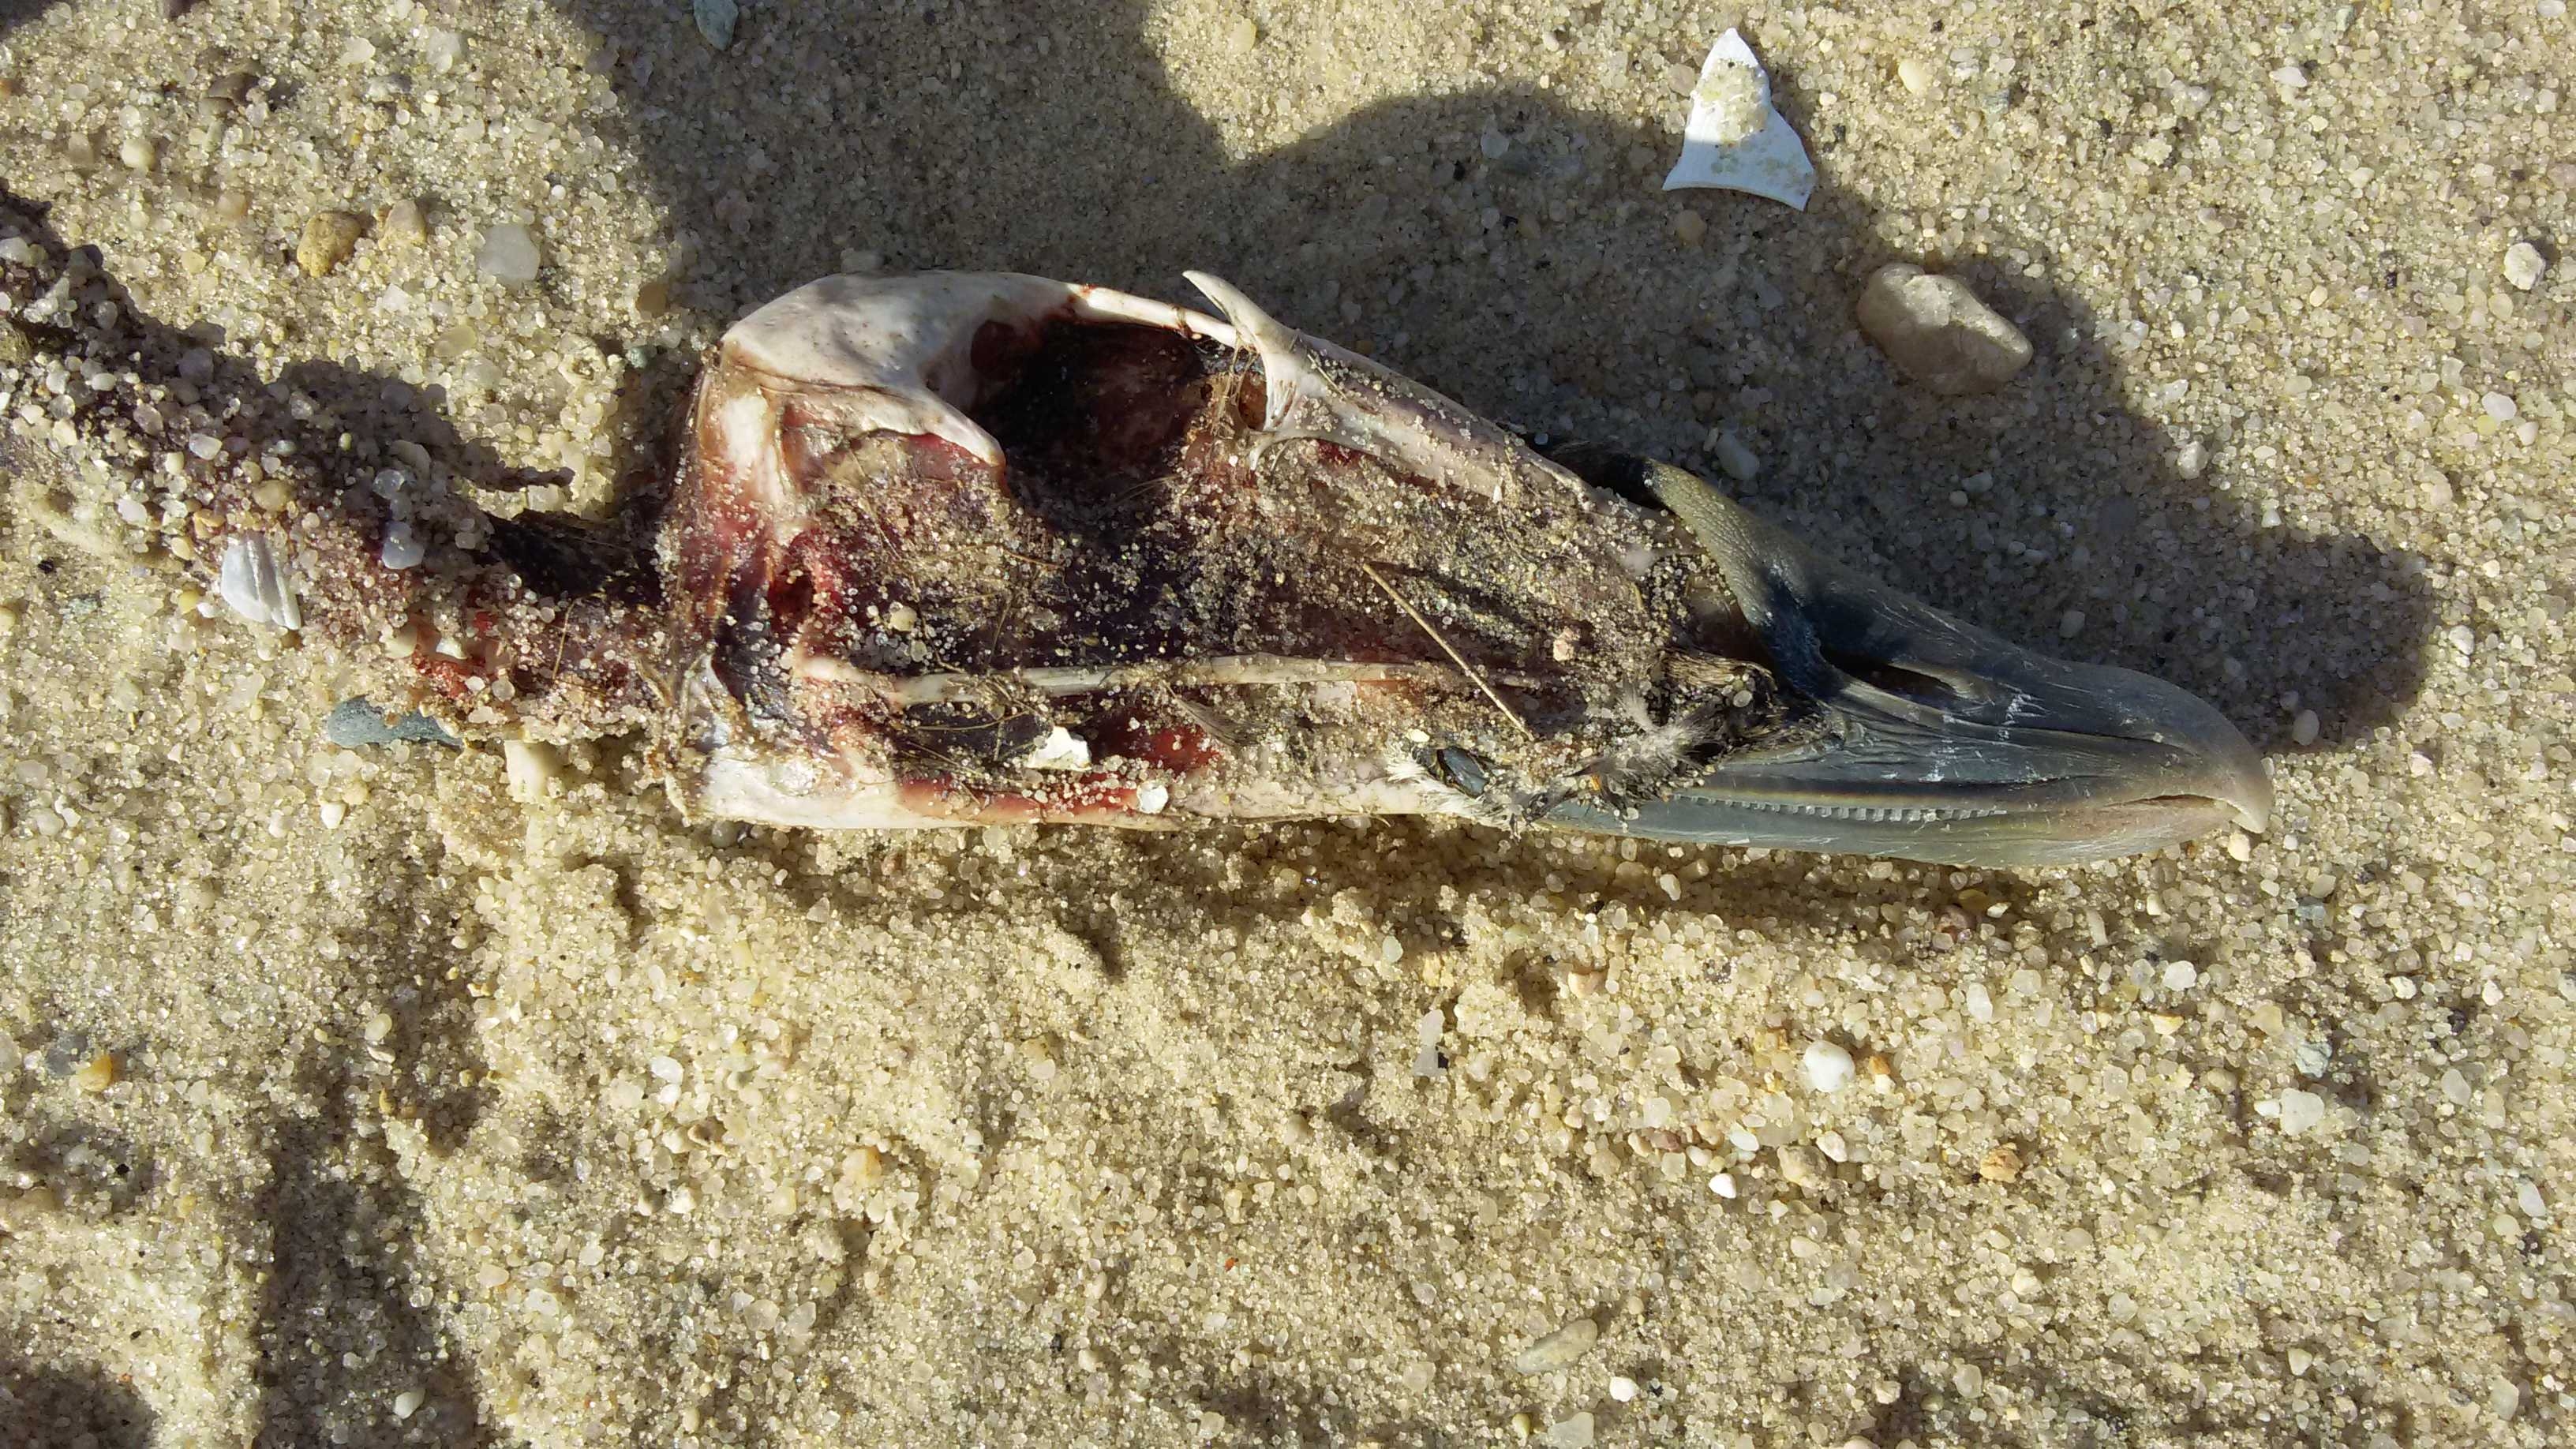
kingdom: Animalia
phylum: Chordata
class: Aves
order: Anseriformes
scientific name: Anseriformes
